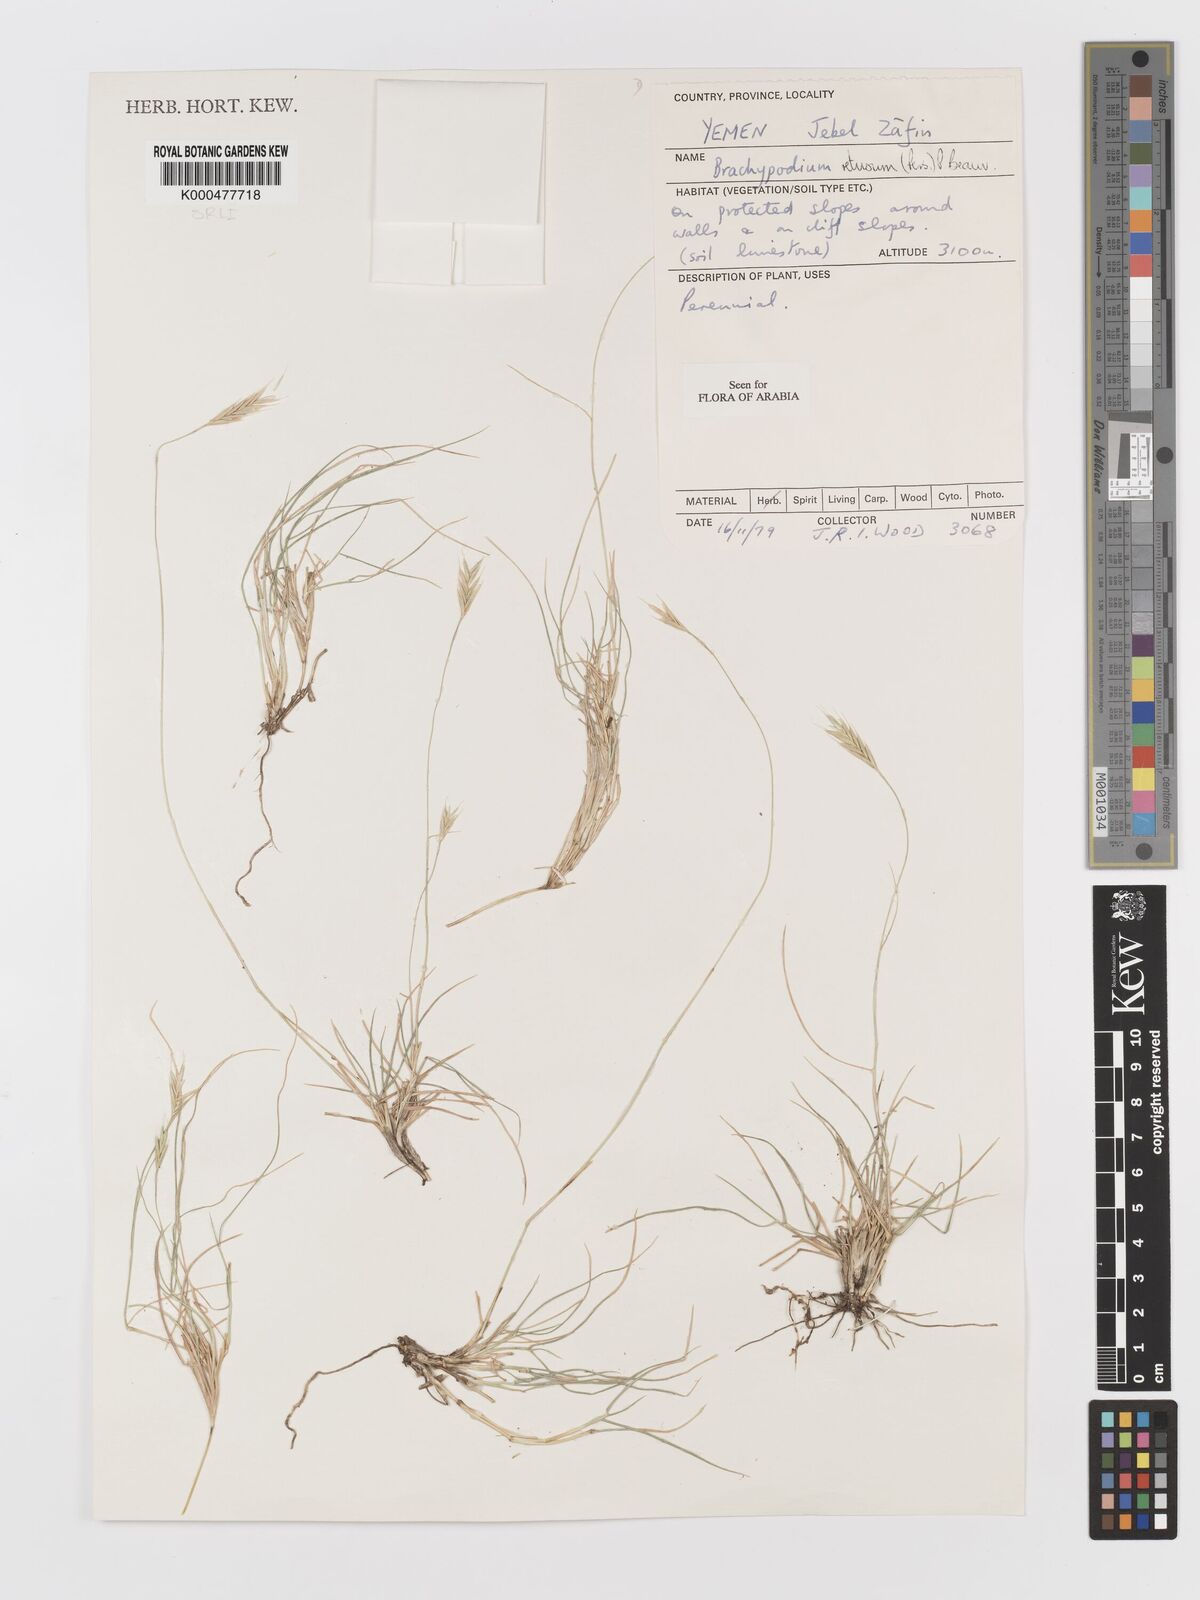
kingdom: Plantae
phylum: Tracheophyta
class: Liliopsida
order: Poales
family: Poaceae
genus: Brachypodium
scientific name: Brachypodium retusum
